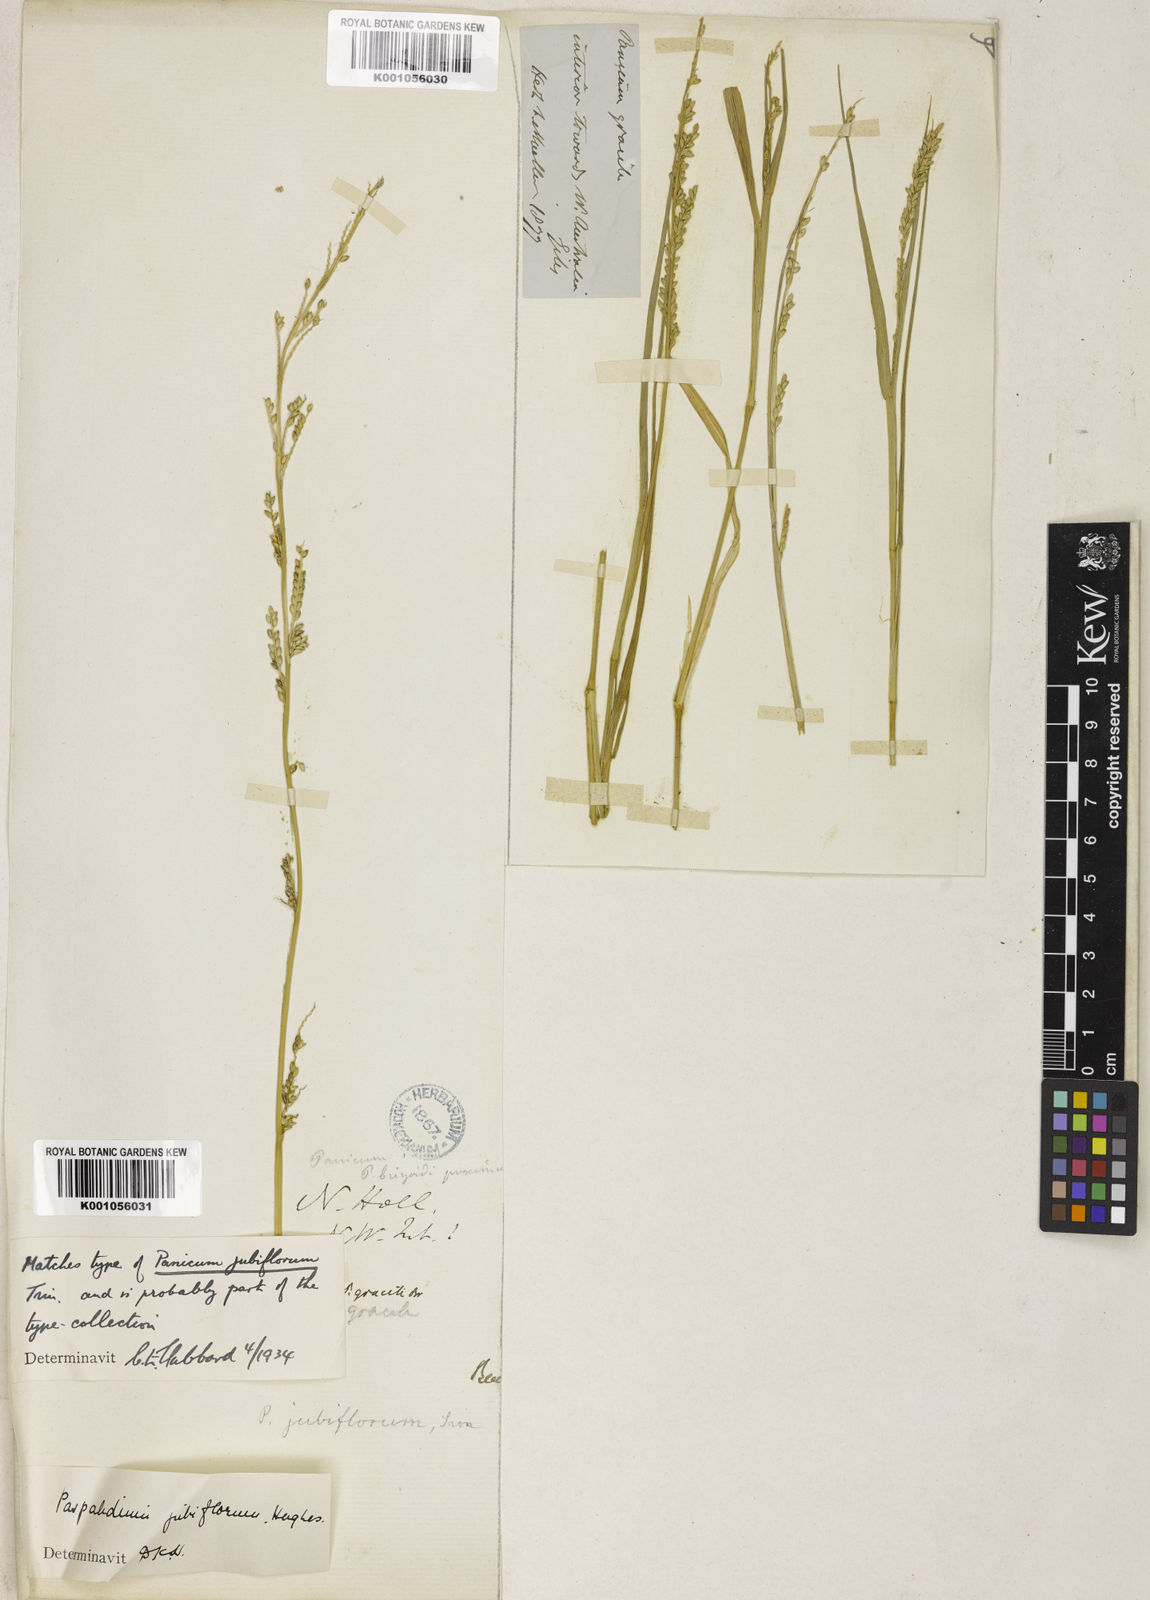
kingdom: Plantae
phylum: Tracheophyta
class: Liliopsida
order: Poales
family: Poaceae
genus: Setaria
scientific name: Setaria jubiflora
